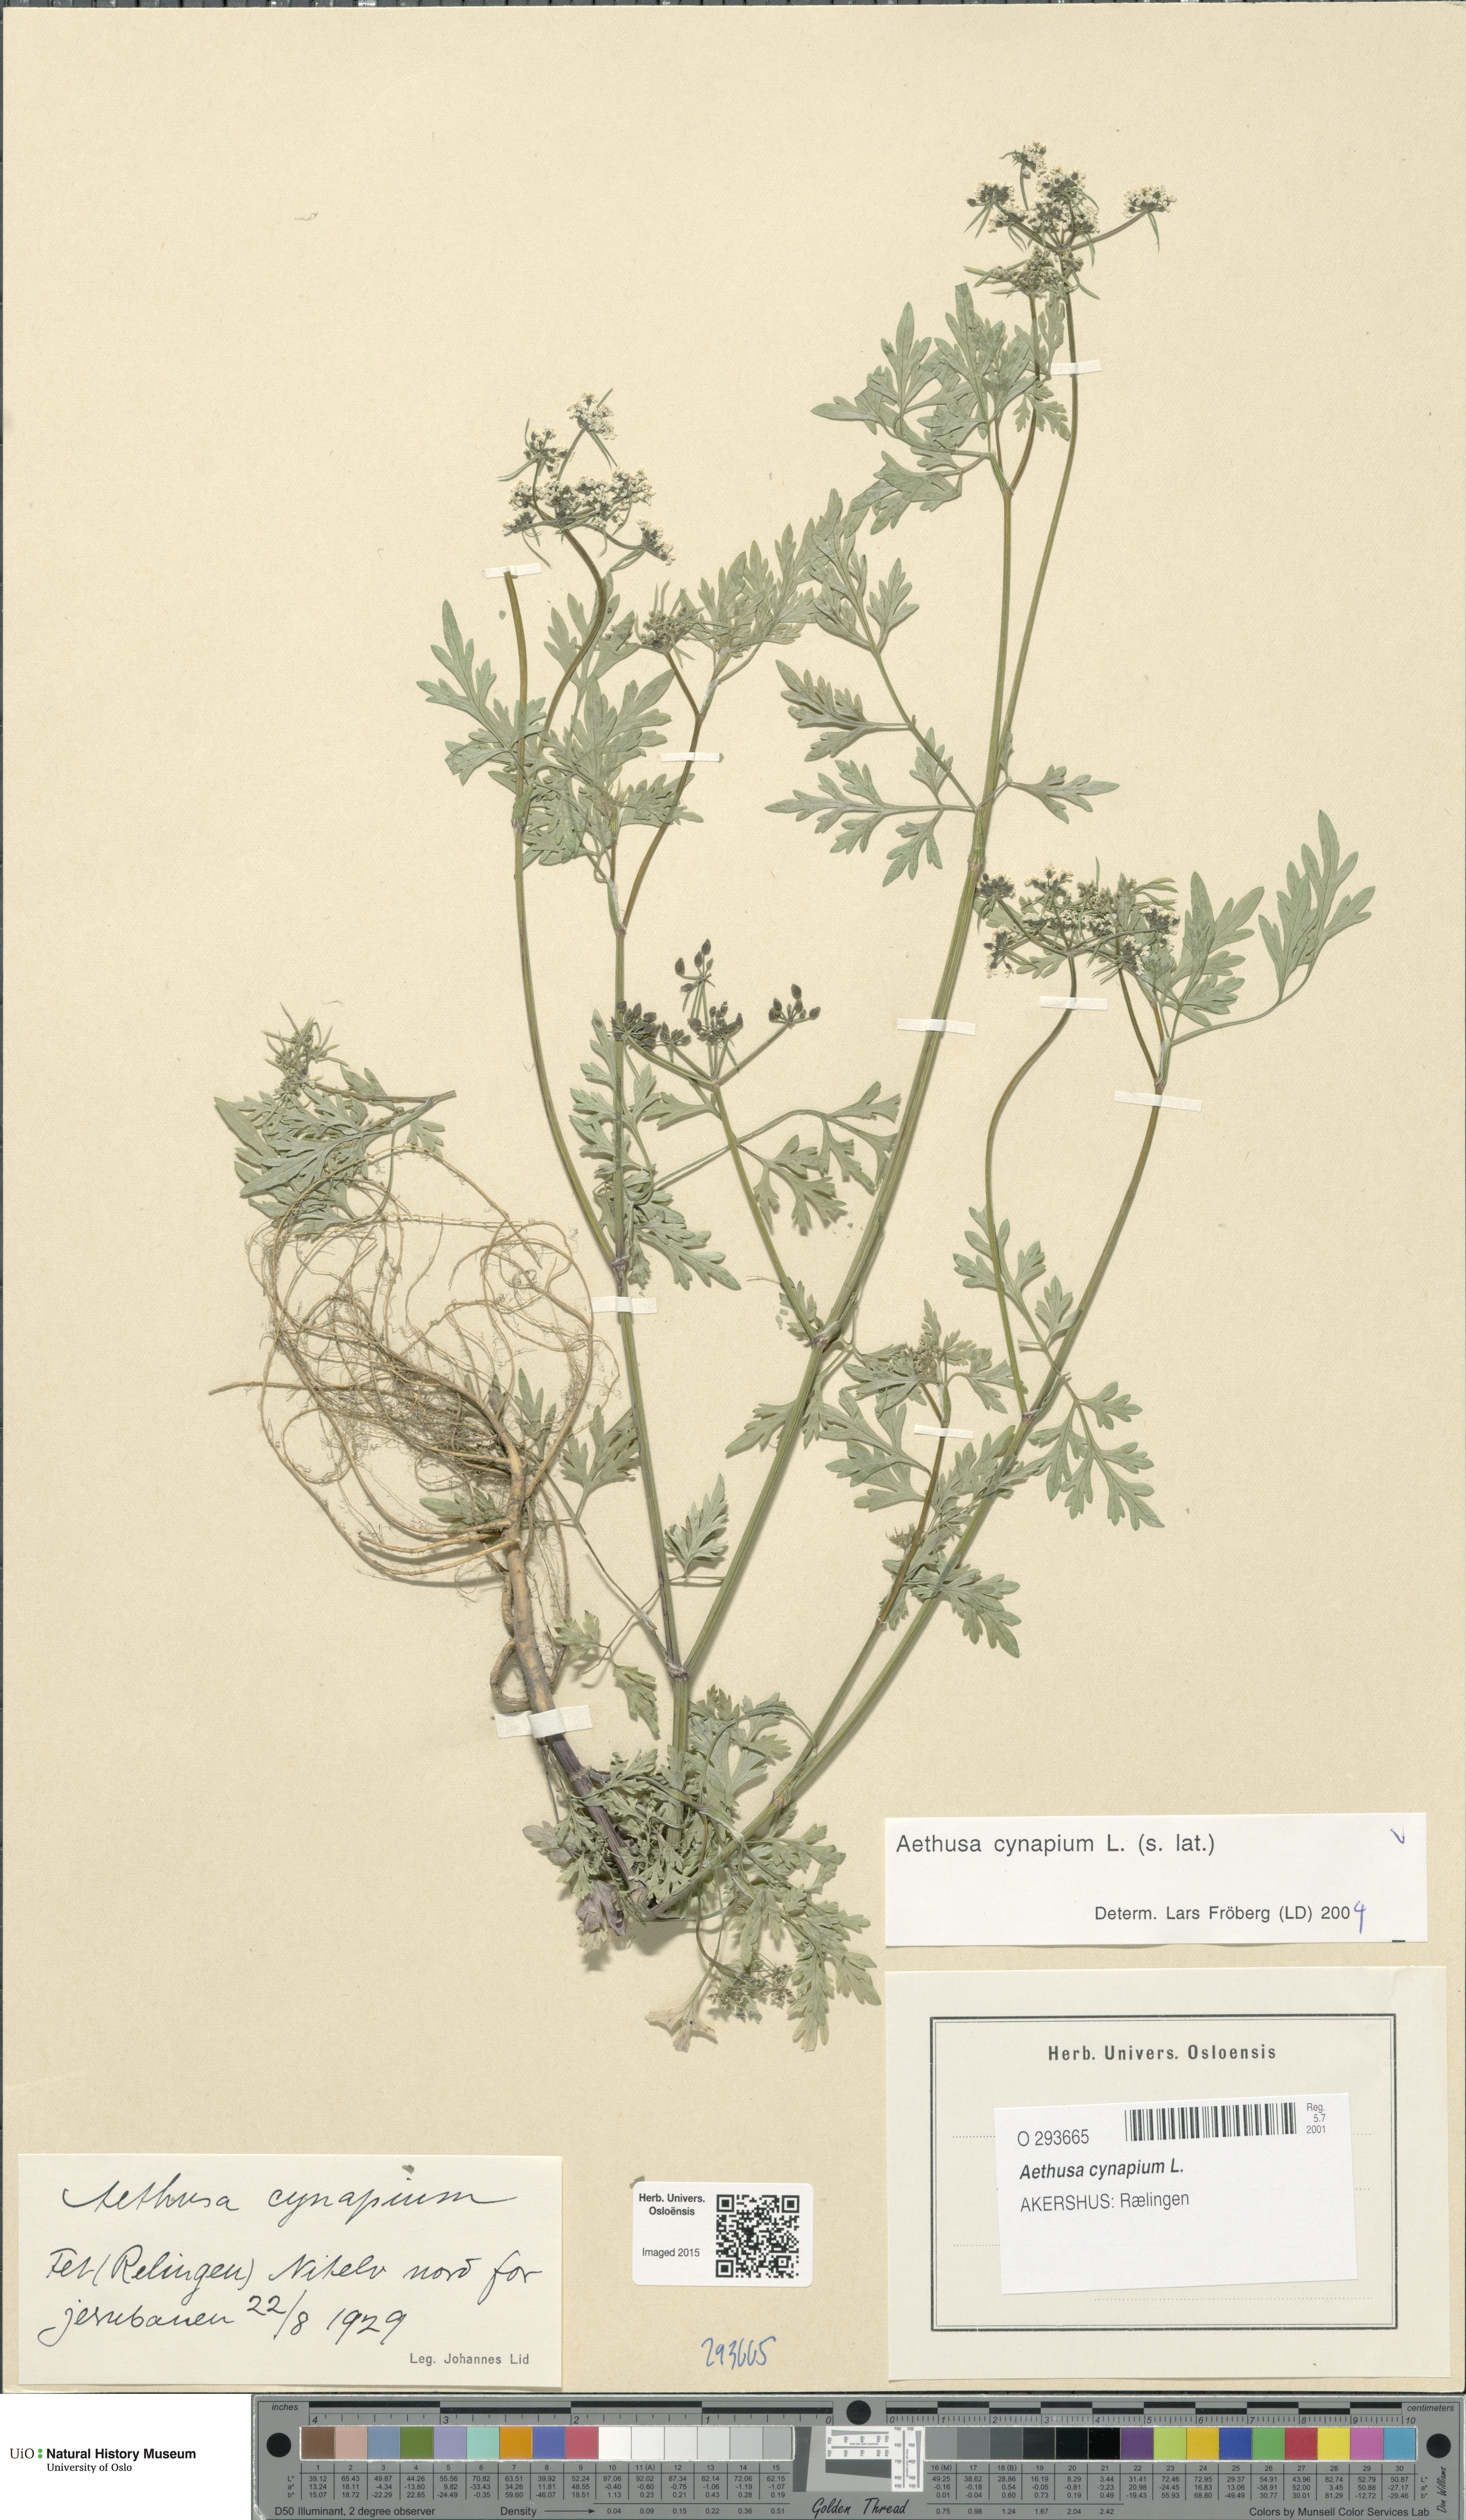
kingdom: Plantae
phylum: Tracheophyta
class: Magnoliopsida
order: Apiales
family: Apiaceae
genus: Aethusa
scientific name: Aethusa cynapium
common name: Fool's parsley
